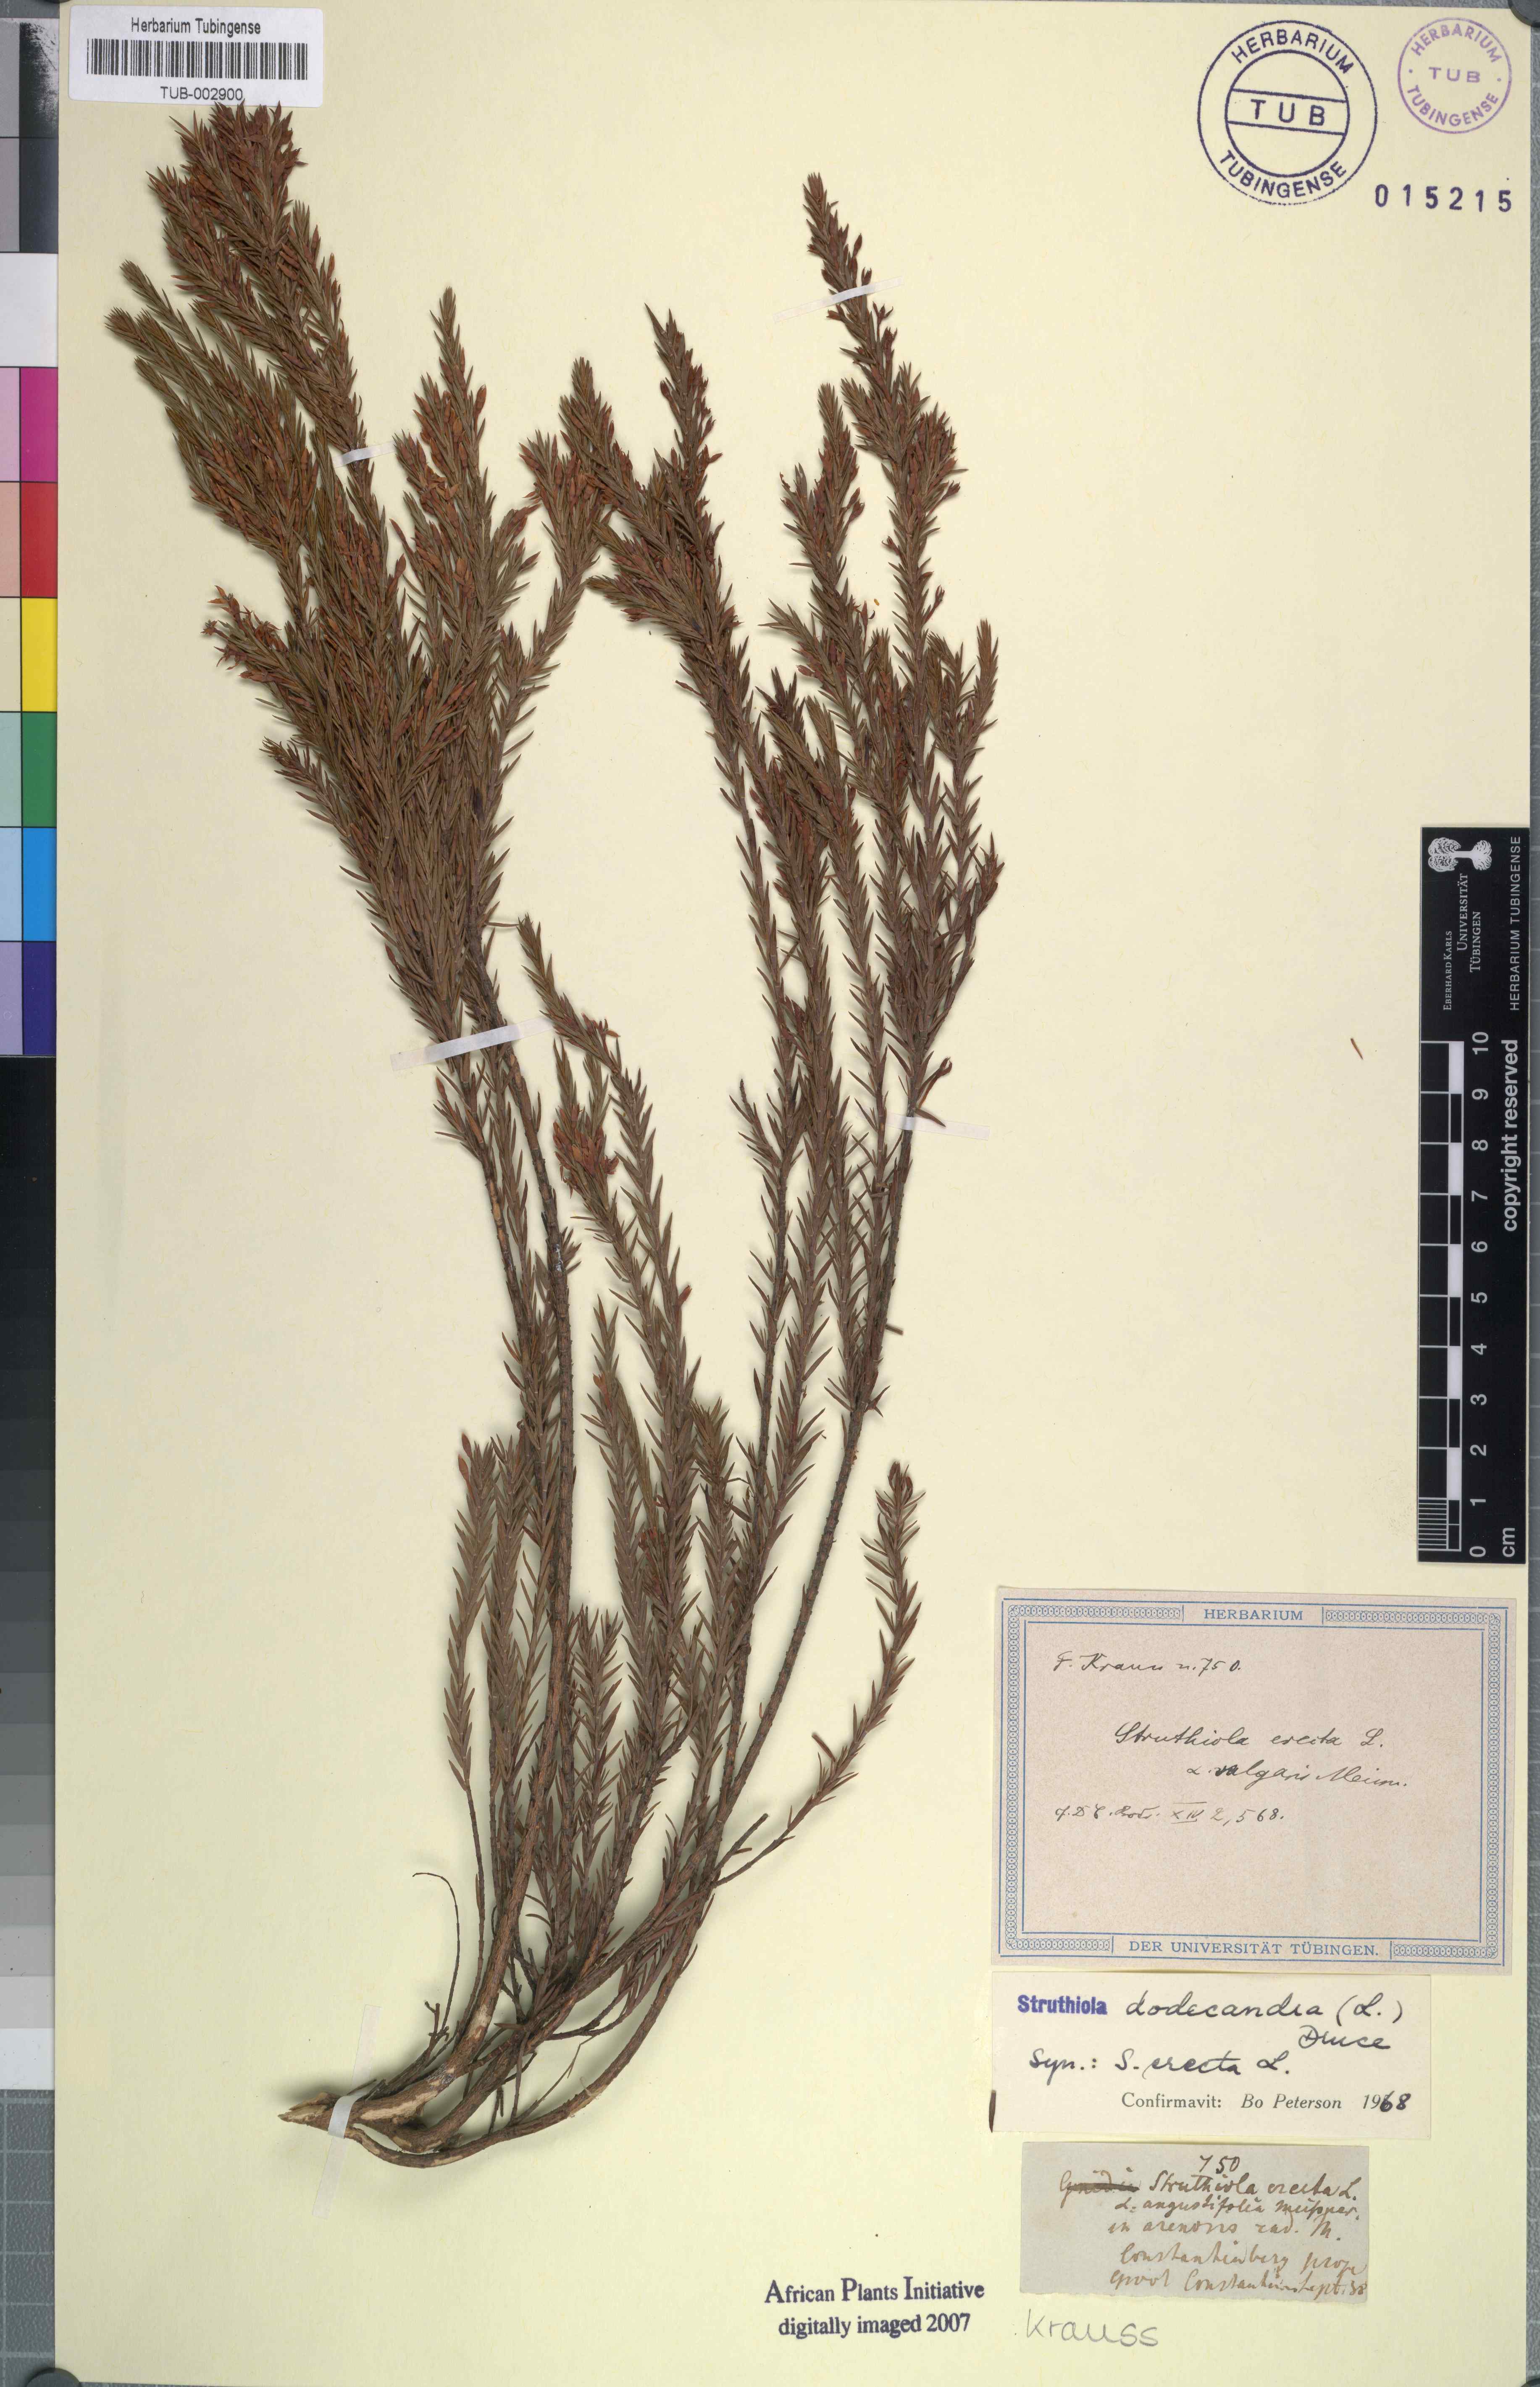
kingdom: Plantae
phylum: Tracheophyta
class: Magnoliopsida
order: Malvales
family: Thymelaeaceae
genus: Struthiola
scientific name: Struthiola dodecandra
